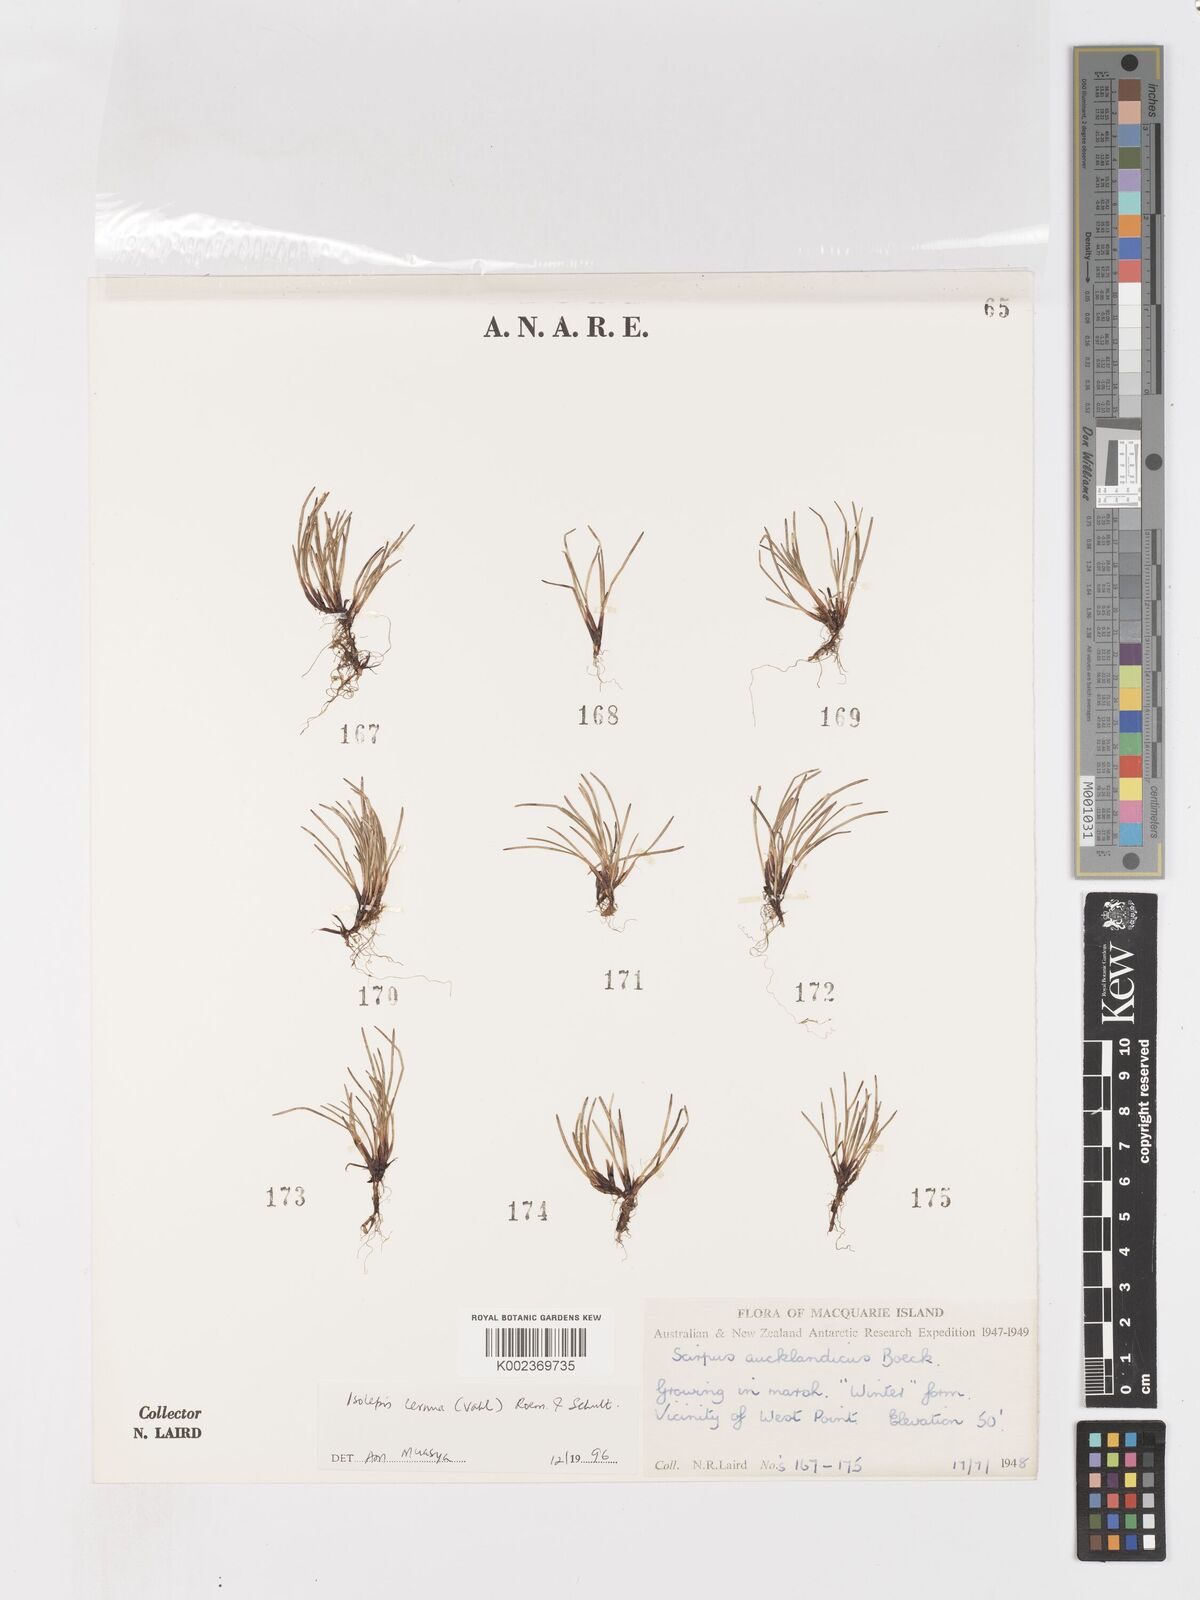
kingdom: Plantae
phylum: Tracheophyta
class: Liliopsida
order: Poales
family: Cyperaceae
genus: Isolepis
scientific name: Isolepis cernua
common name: Slender club-rush
